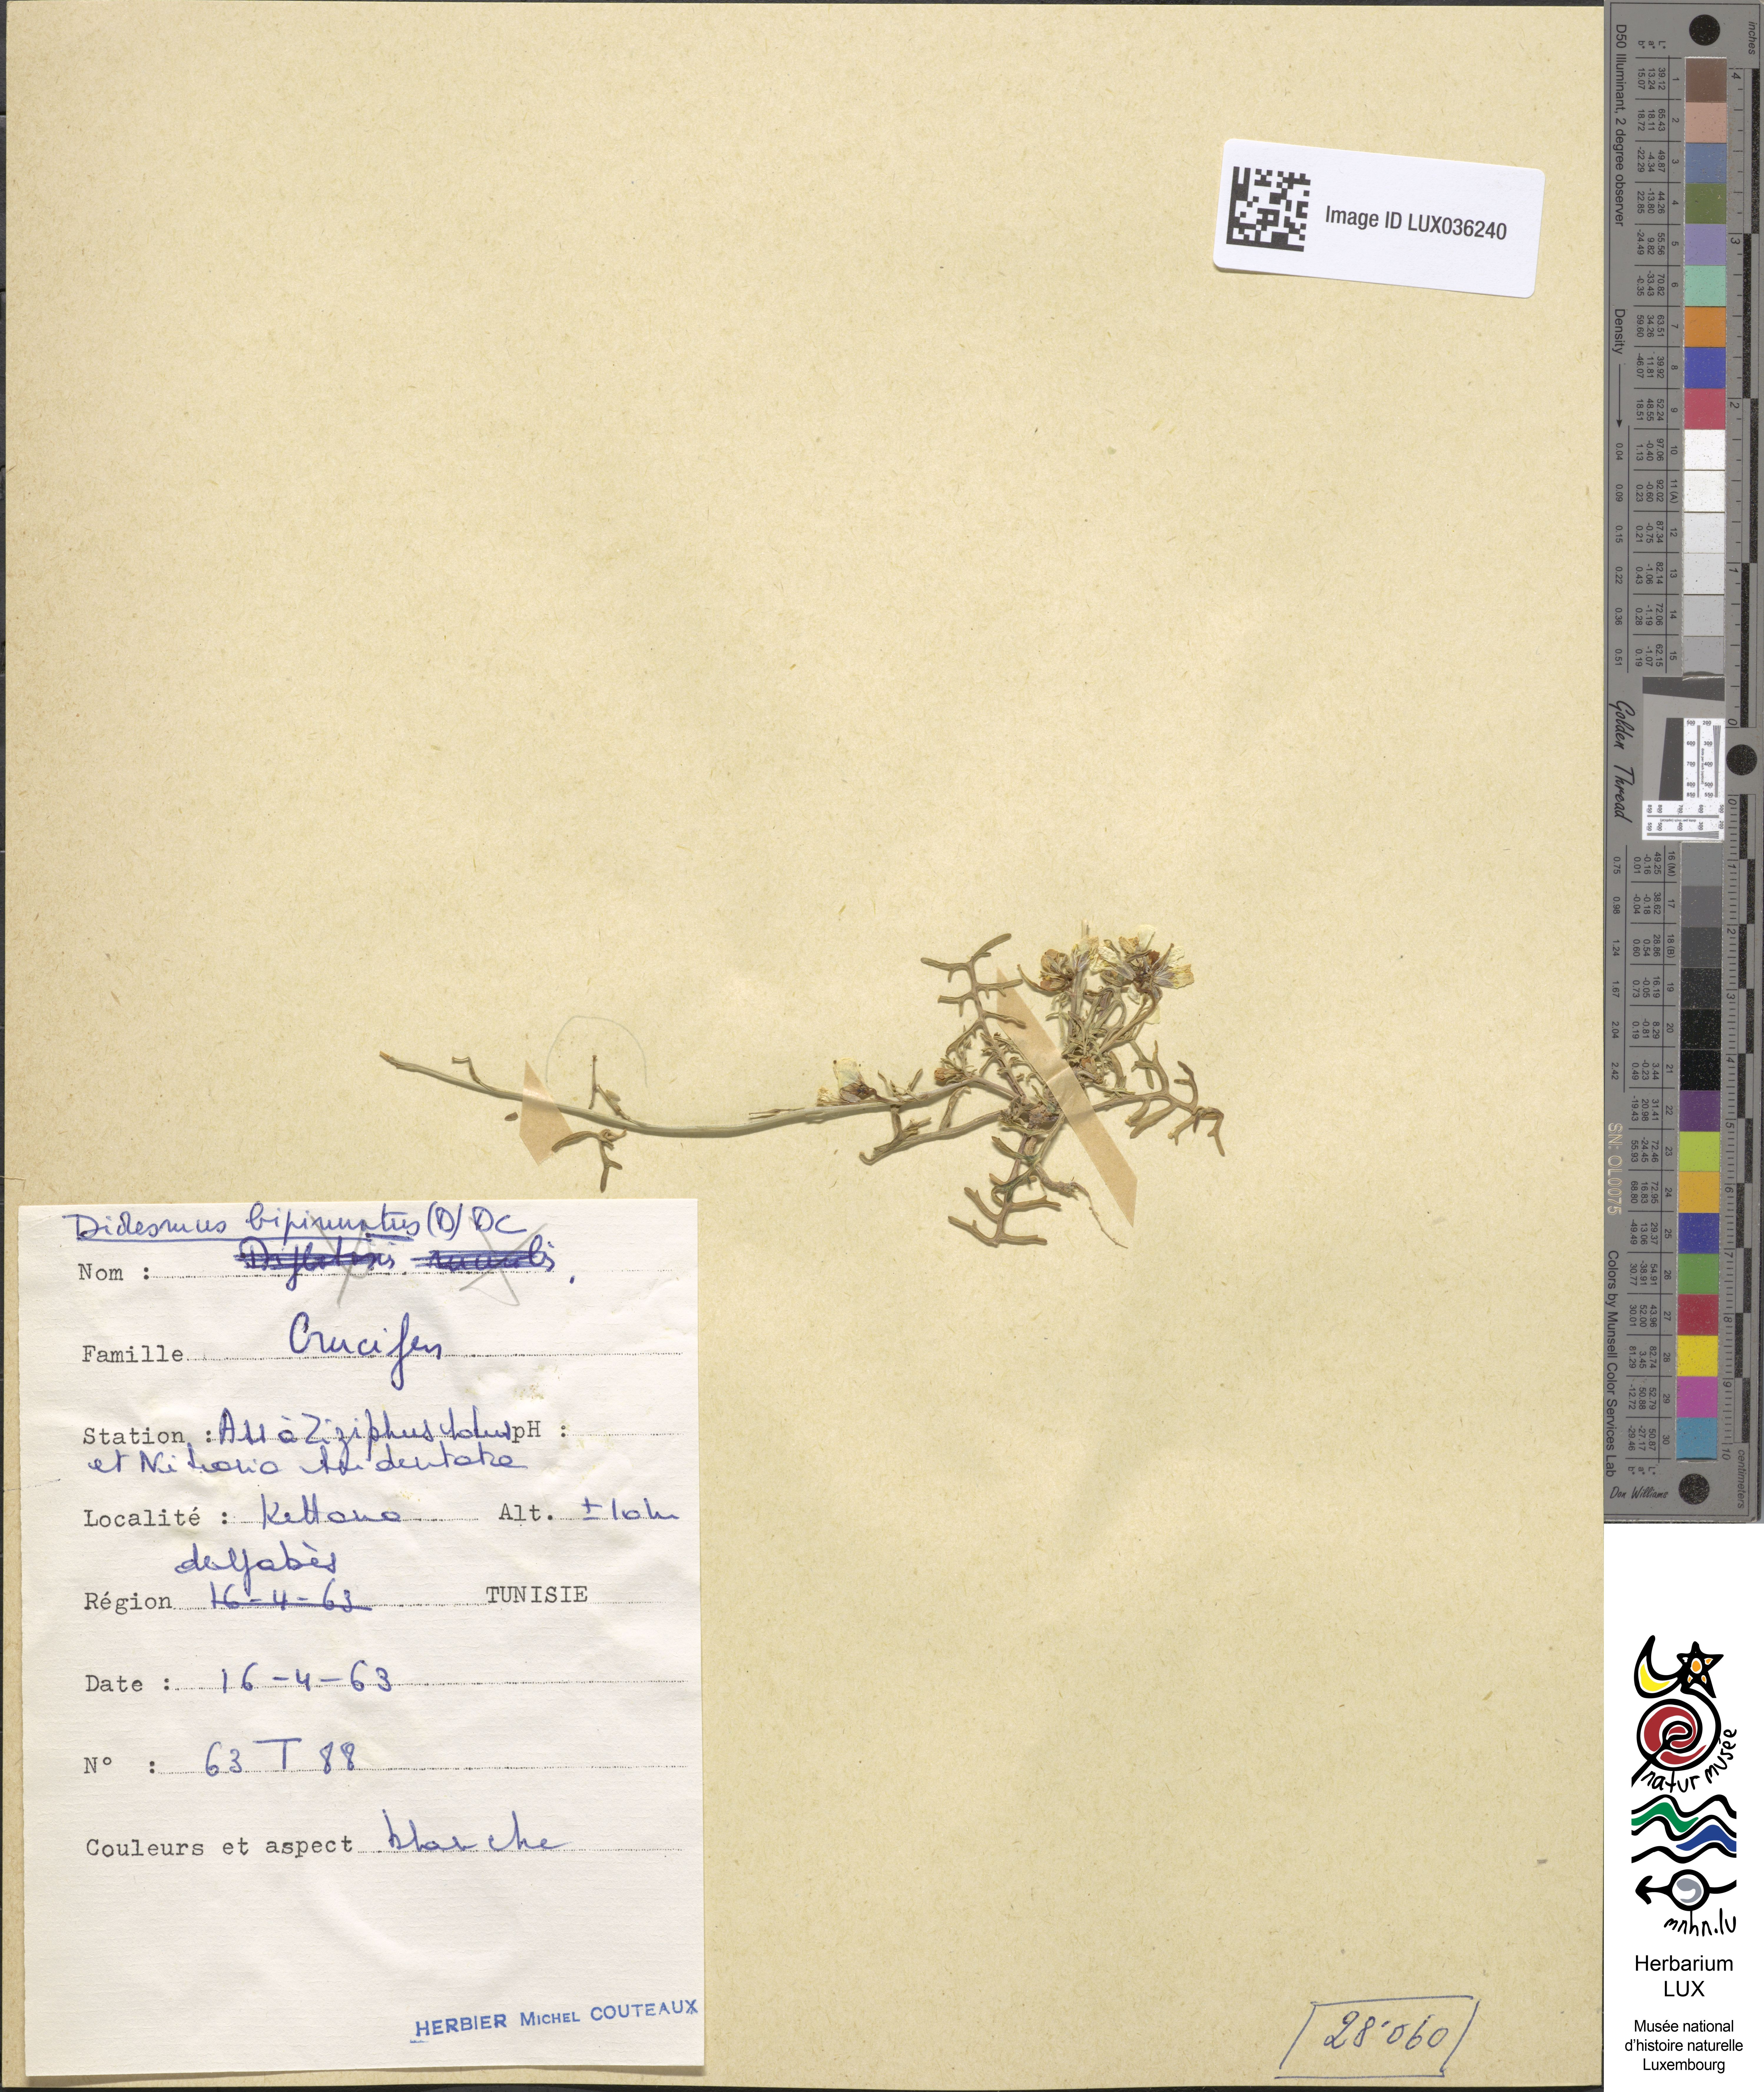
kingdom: Plantae
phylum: Tracheophyta
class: Magnoliopsida
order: Brassicales
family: Brassicaceae
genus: Didesmus
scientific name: Didesmus bipinnatus
